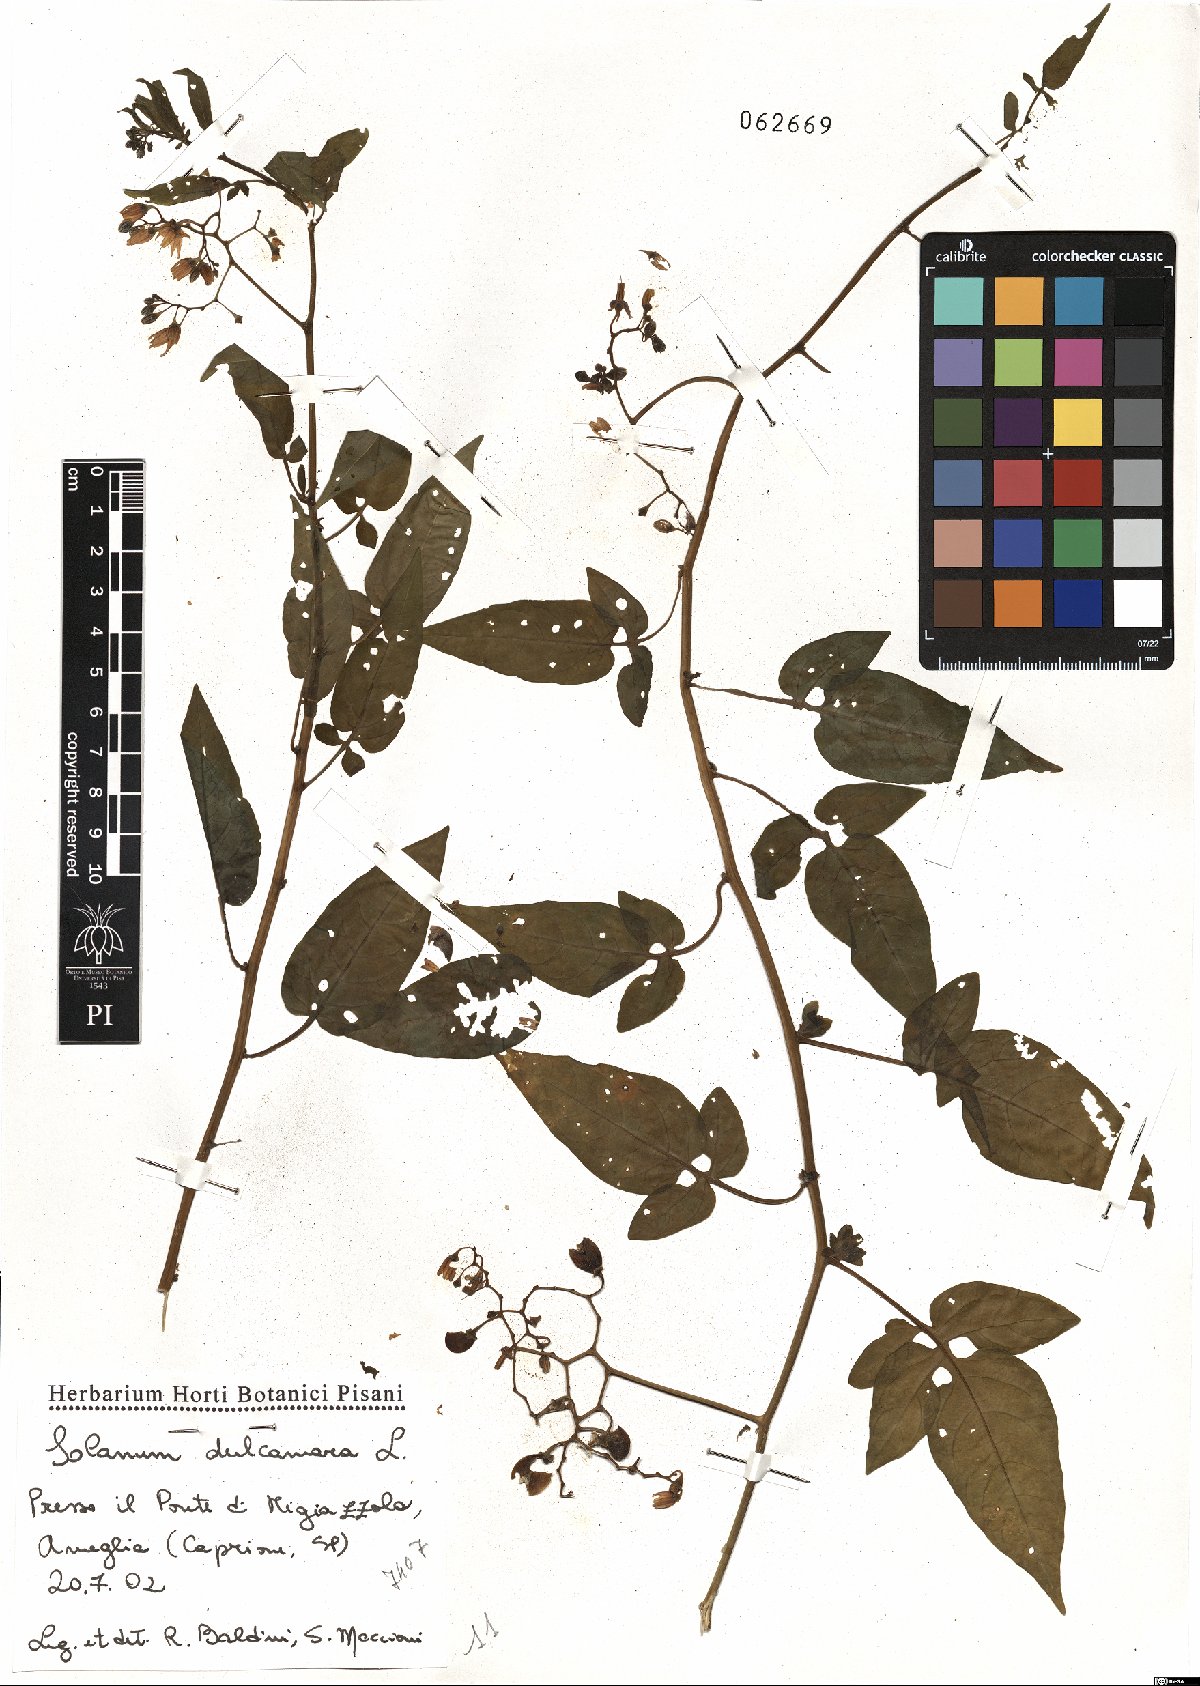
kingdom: Plantae
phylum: Tracheophyta
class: Magnoliopsida
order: Solanales
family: Solanaceae
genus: Solanum
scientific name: Solanum dulcamara
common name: Climbing nightshade
